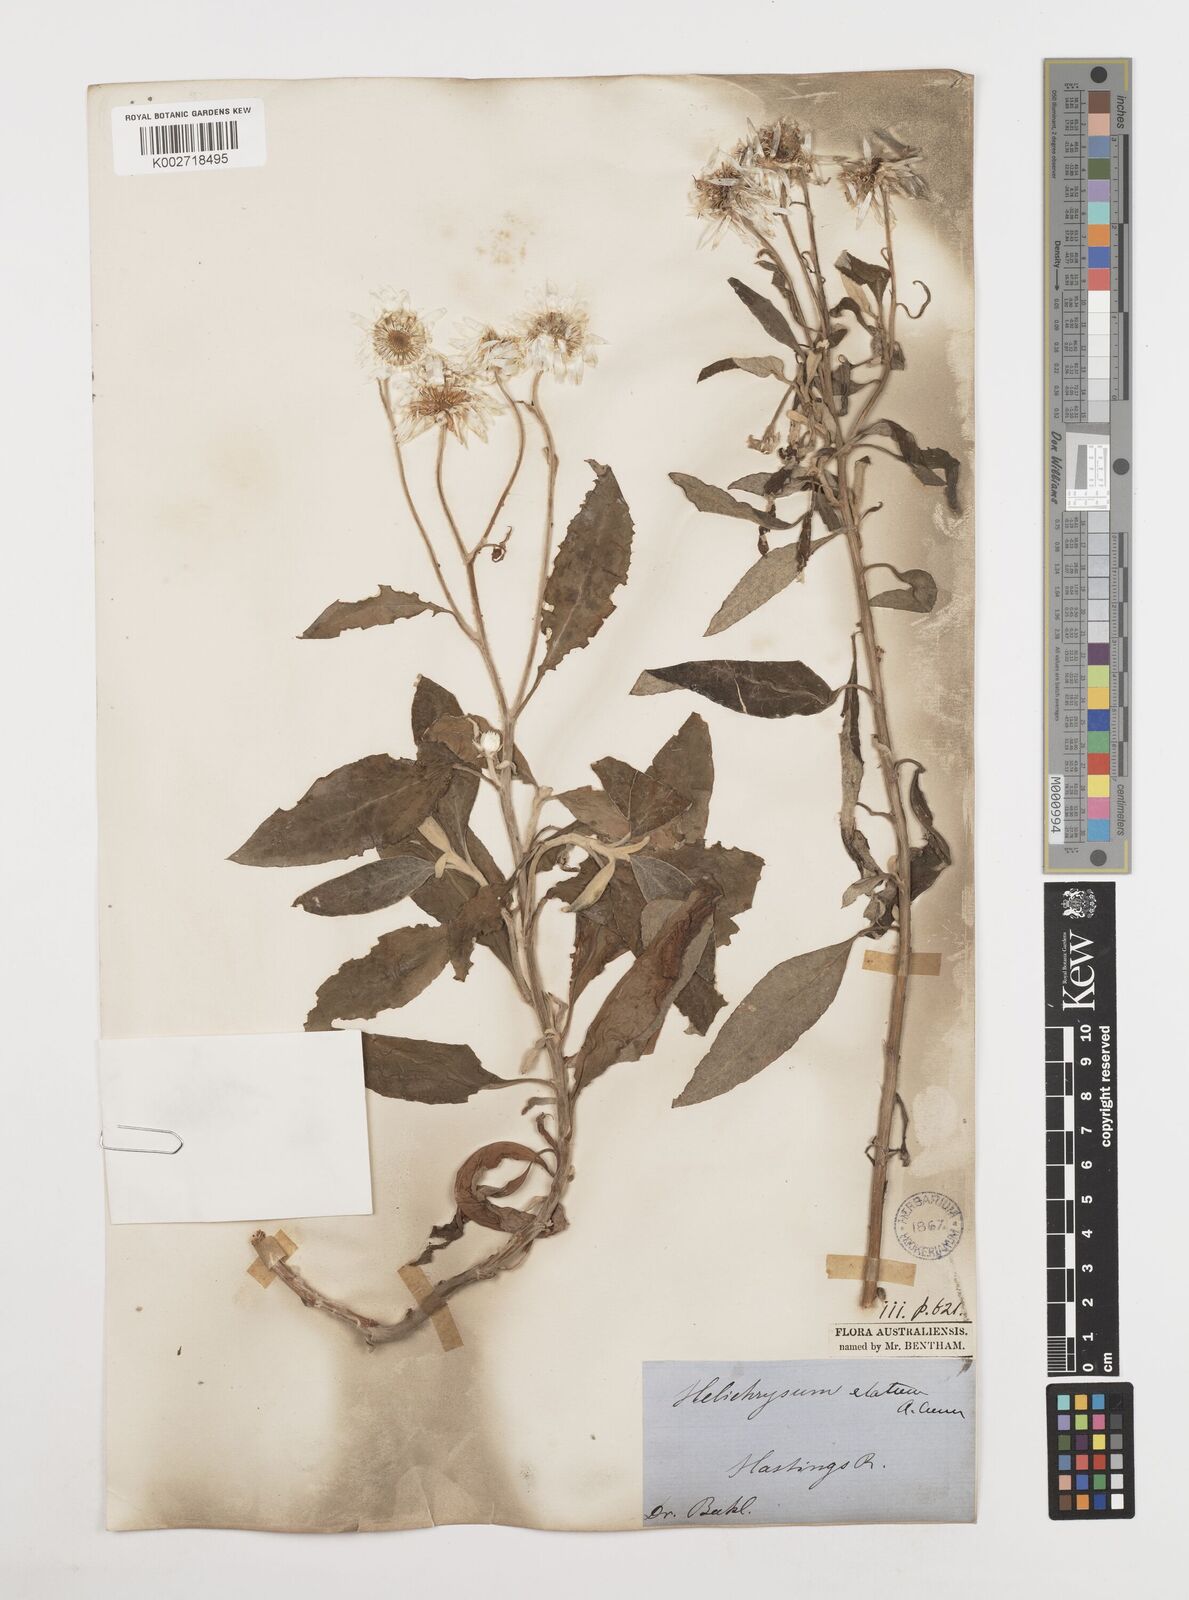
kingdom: Plantae
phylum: Tracheophyta
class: Magnoliopsida
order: Asterales
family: Asteraceae
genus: Leucozoma
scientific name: Leucozoma elatum
